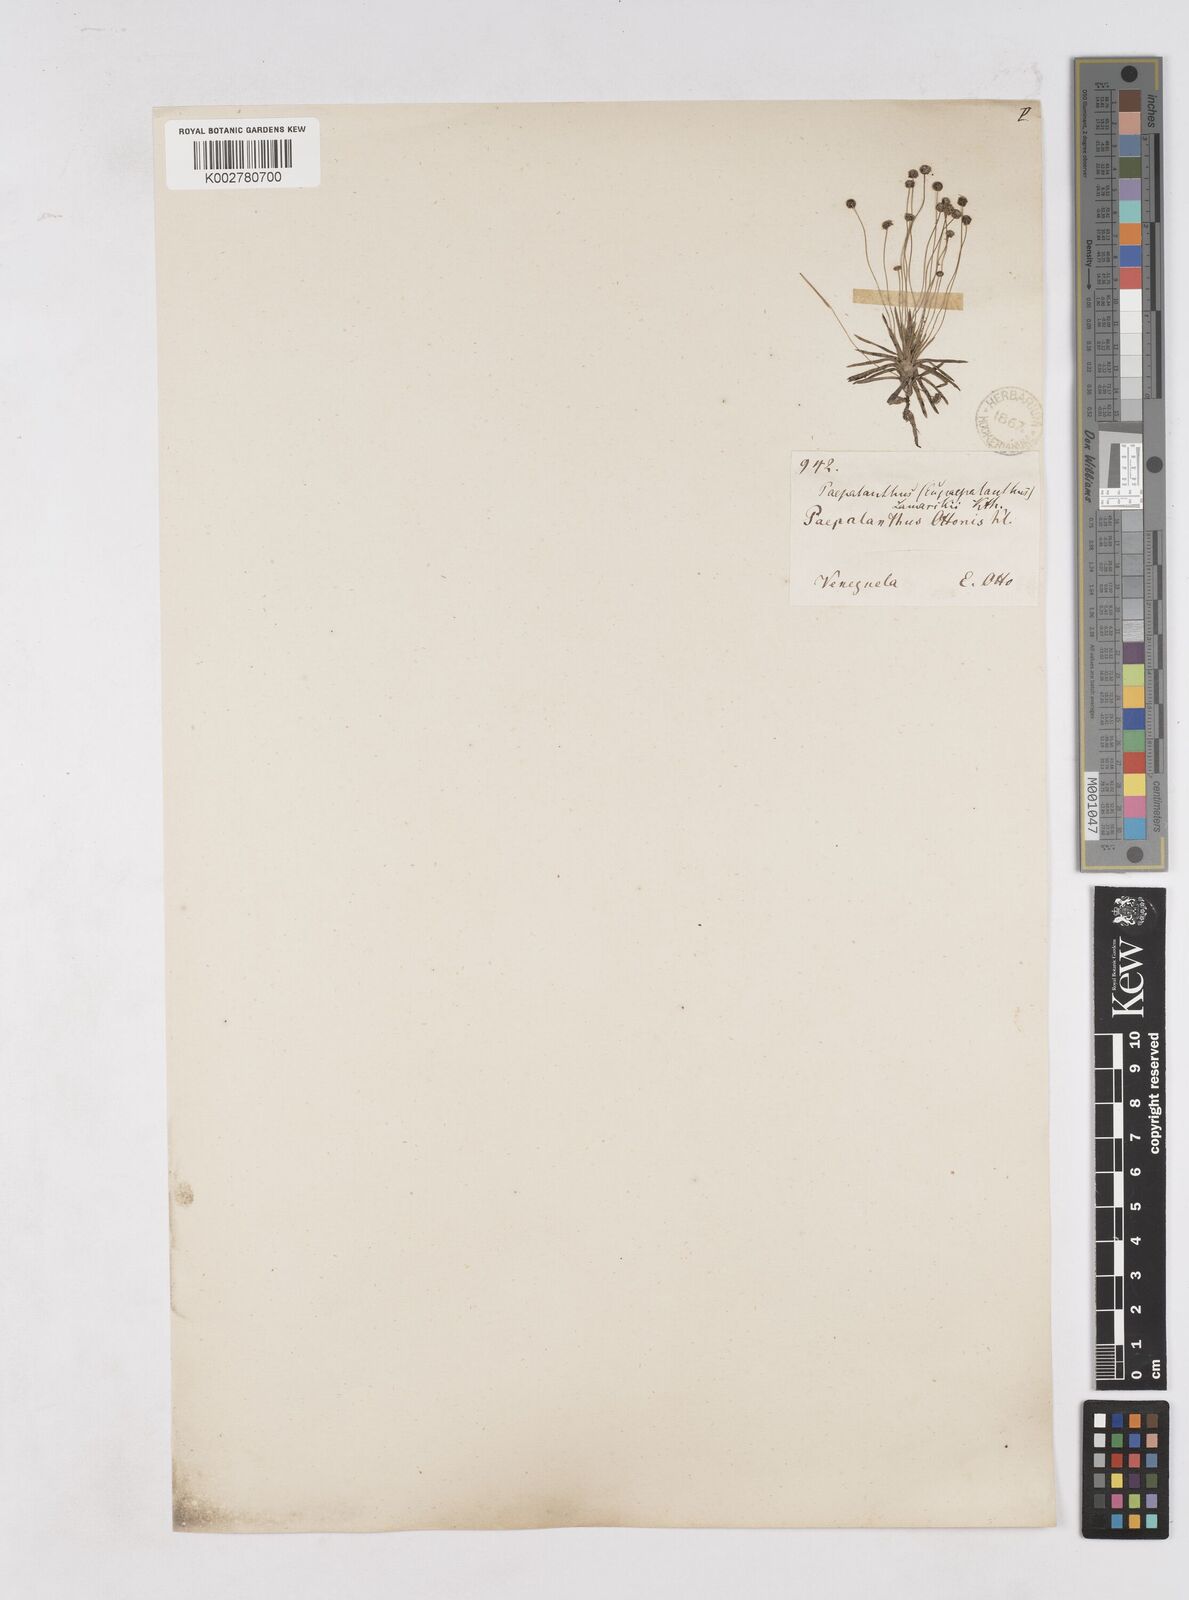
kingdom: Plantae
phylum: Tracheophyta
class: Liliopsida
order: Poales
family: Eriocaulaceae
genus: Paepalanthus
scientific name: Paepalanthus lamarckii
